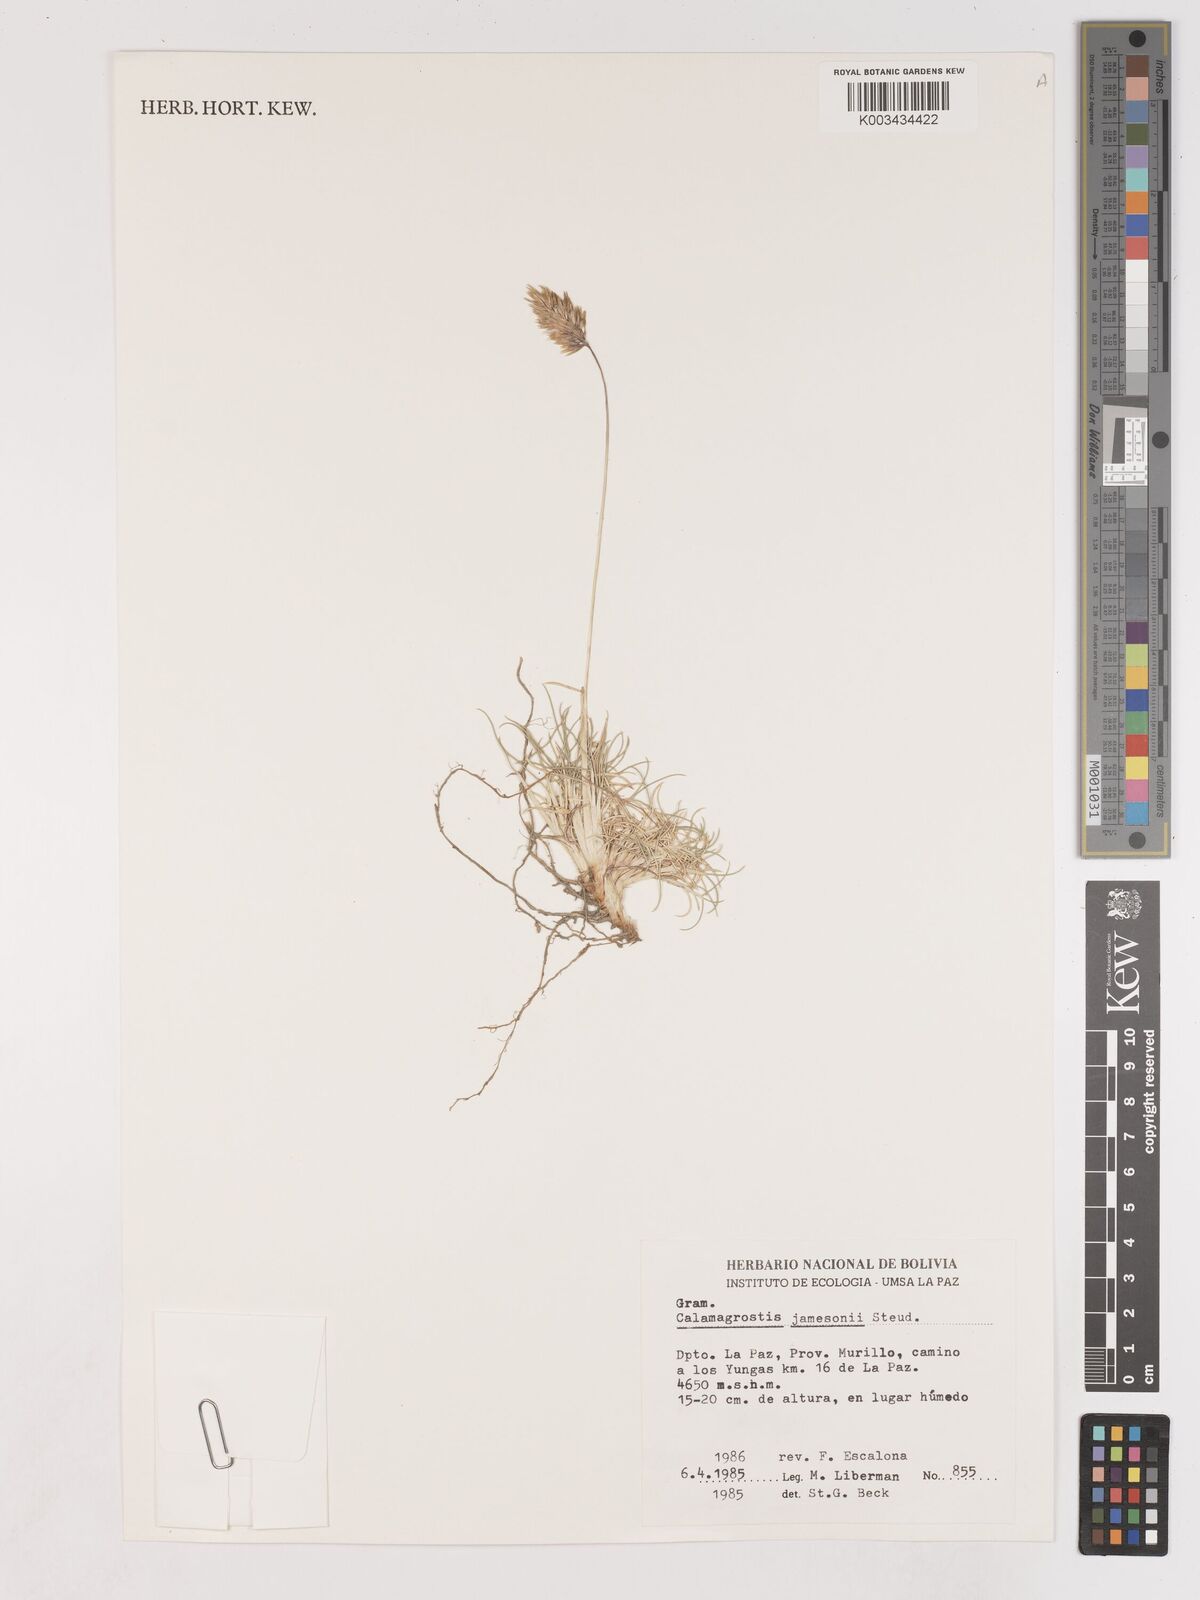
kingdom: Plantae
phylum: Tracheophyta
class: Liliopsida
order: Poales
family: Poaceae
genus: Cinnagrostis
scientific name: Cinnagrostis spicigera
